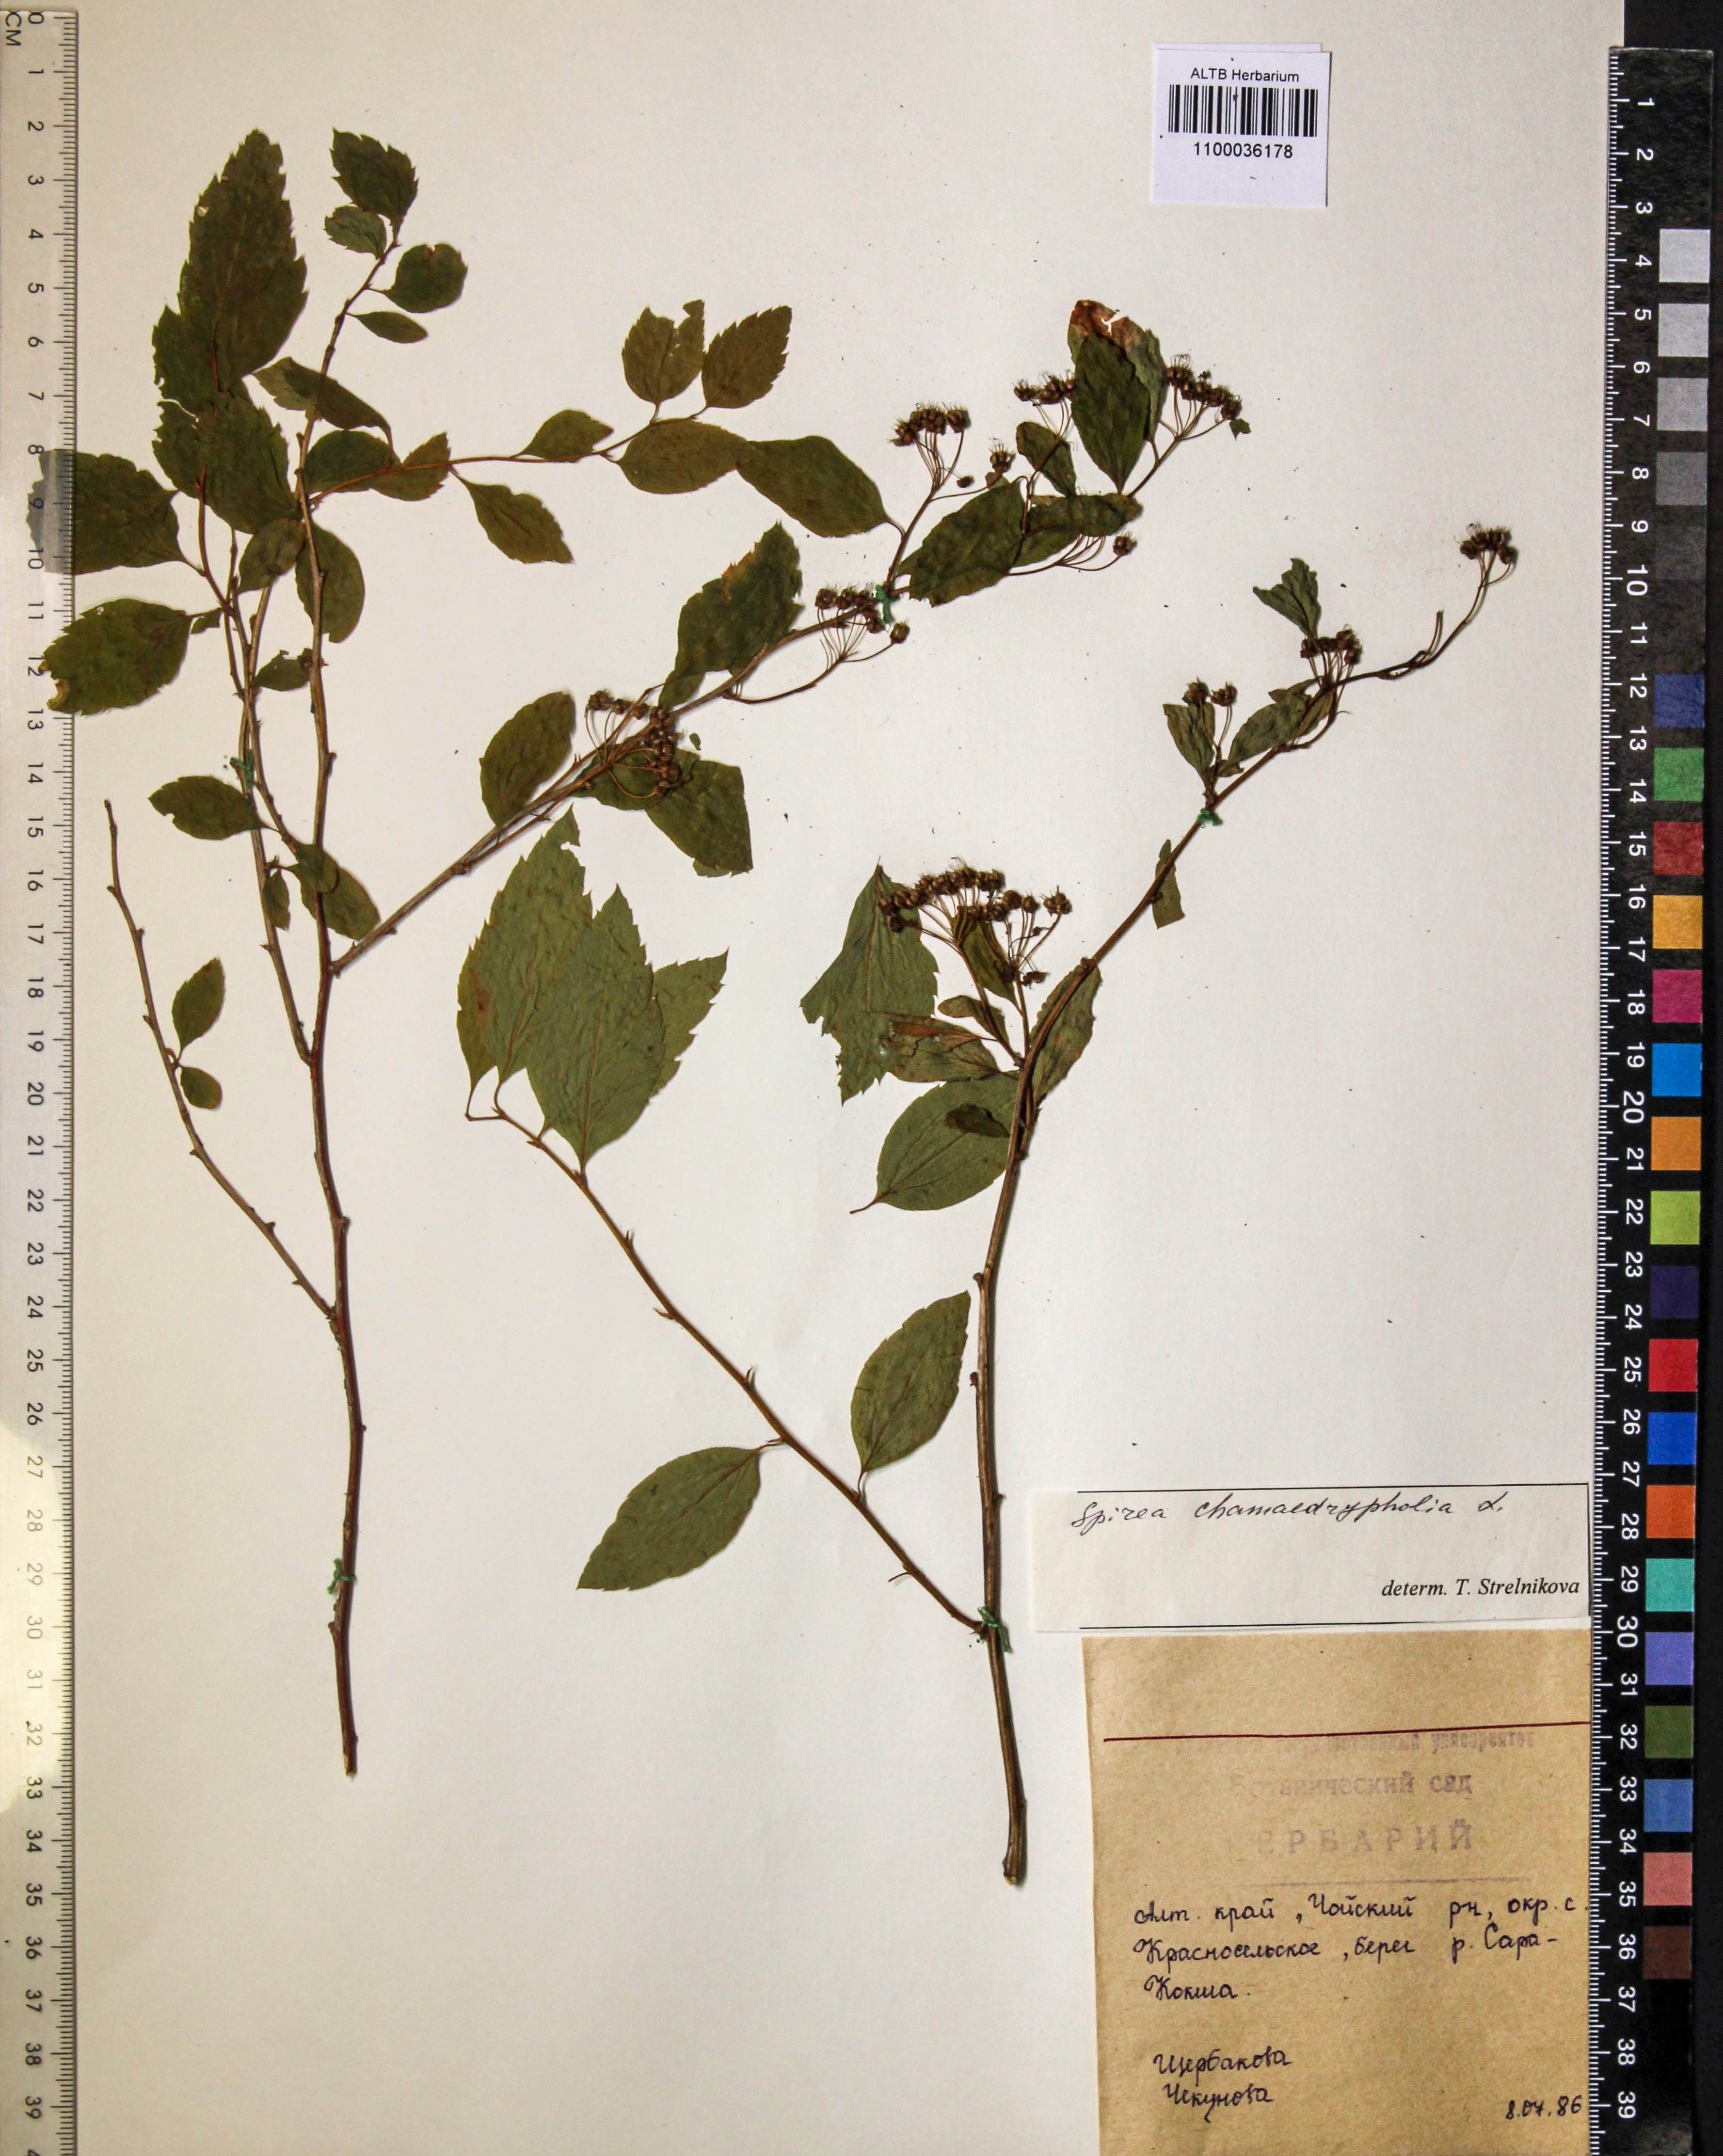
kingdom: Plantae
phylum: Tracheophyta
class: Magnoliopsida
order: Rosales
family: Rosaceae
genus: Spiraea
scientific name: Spiraea chamaedryfolia
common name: Elm-leaved spiraea
